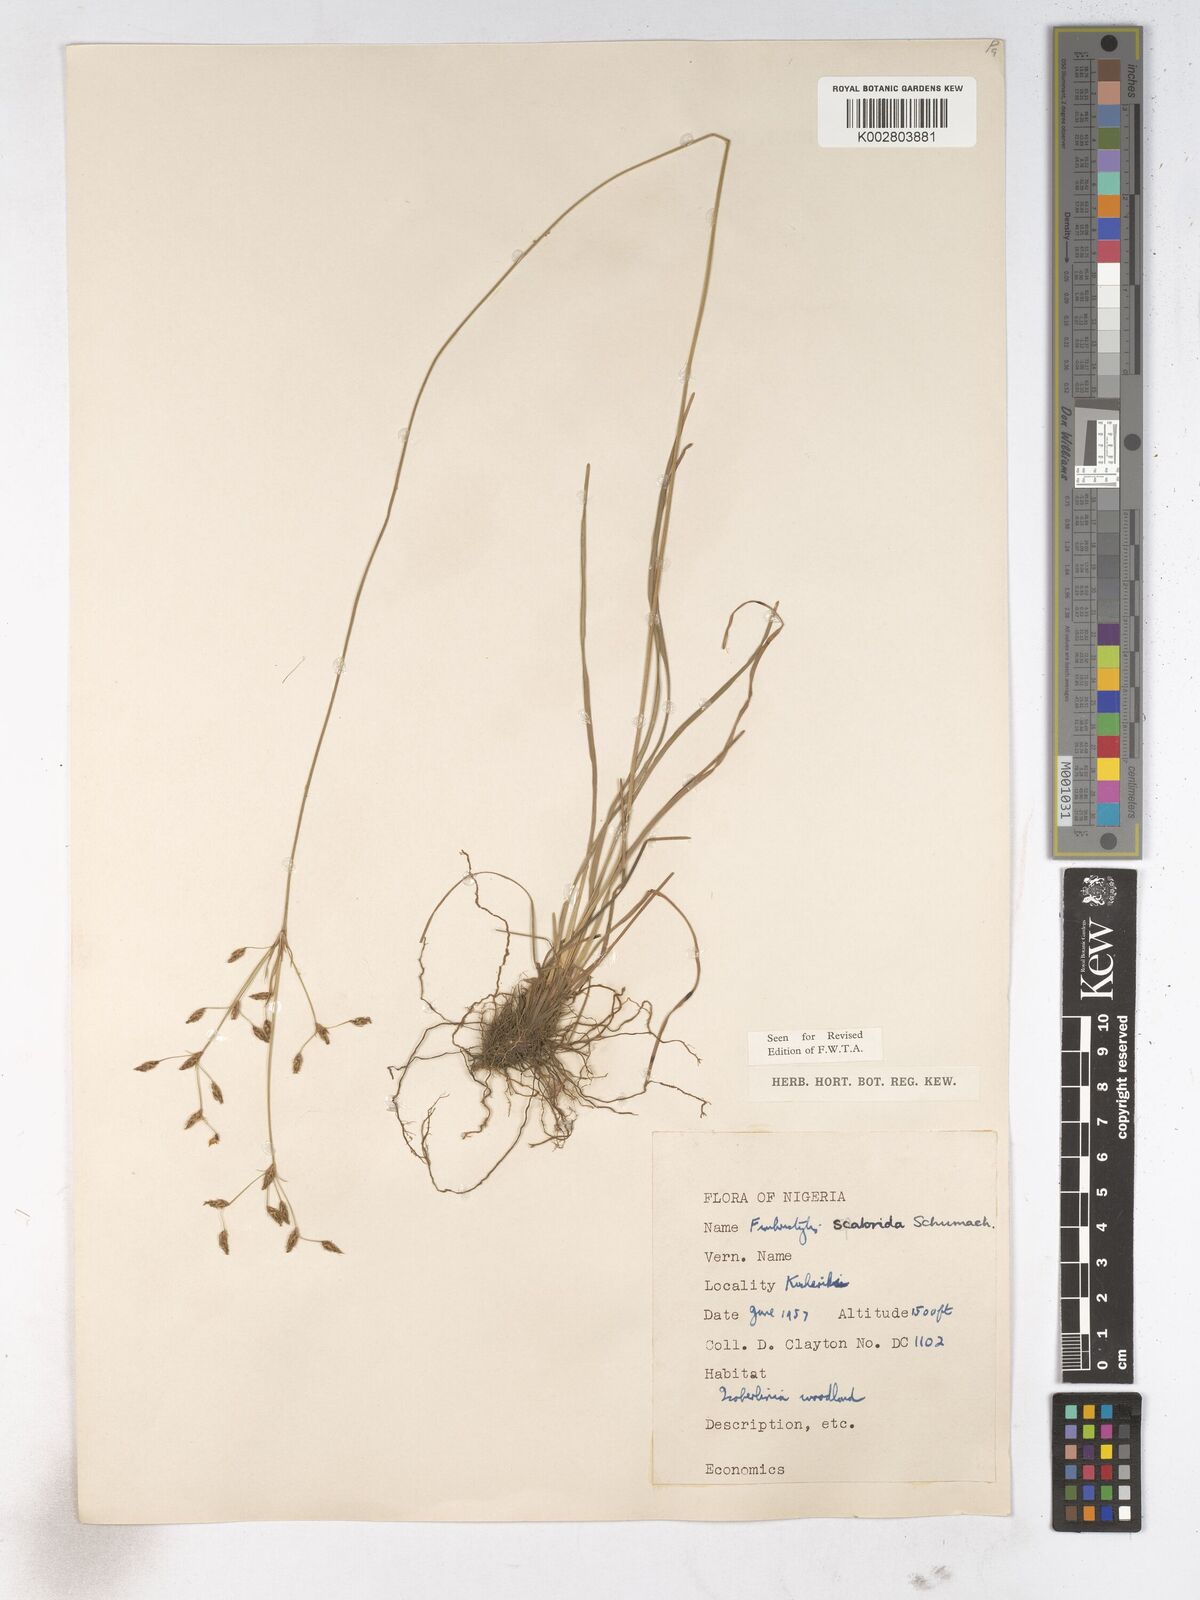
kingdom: Plantae
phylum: Tracheophyta
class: Liliopsida
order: Poales
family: Cyperaceae
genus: Fimbristylis
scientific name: Fimbristylis scabrida
